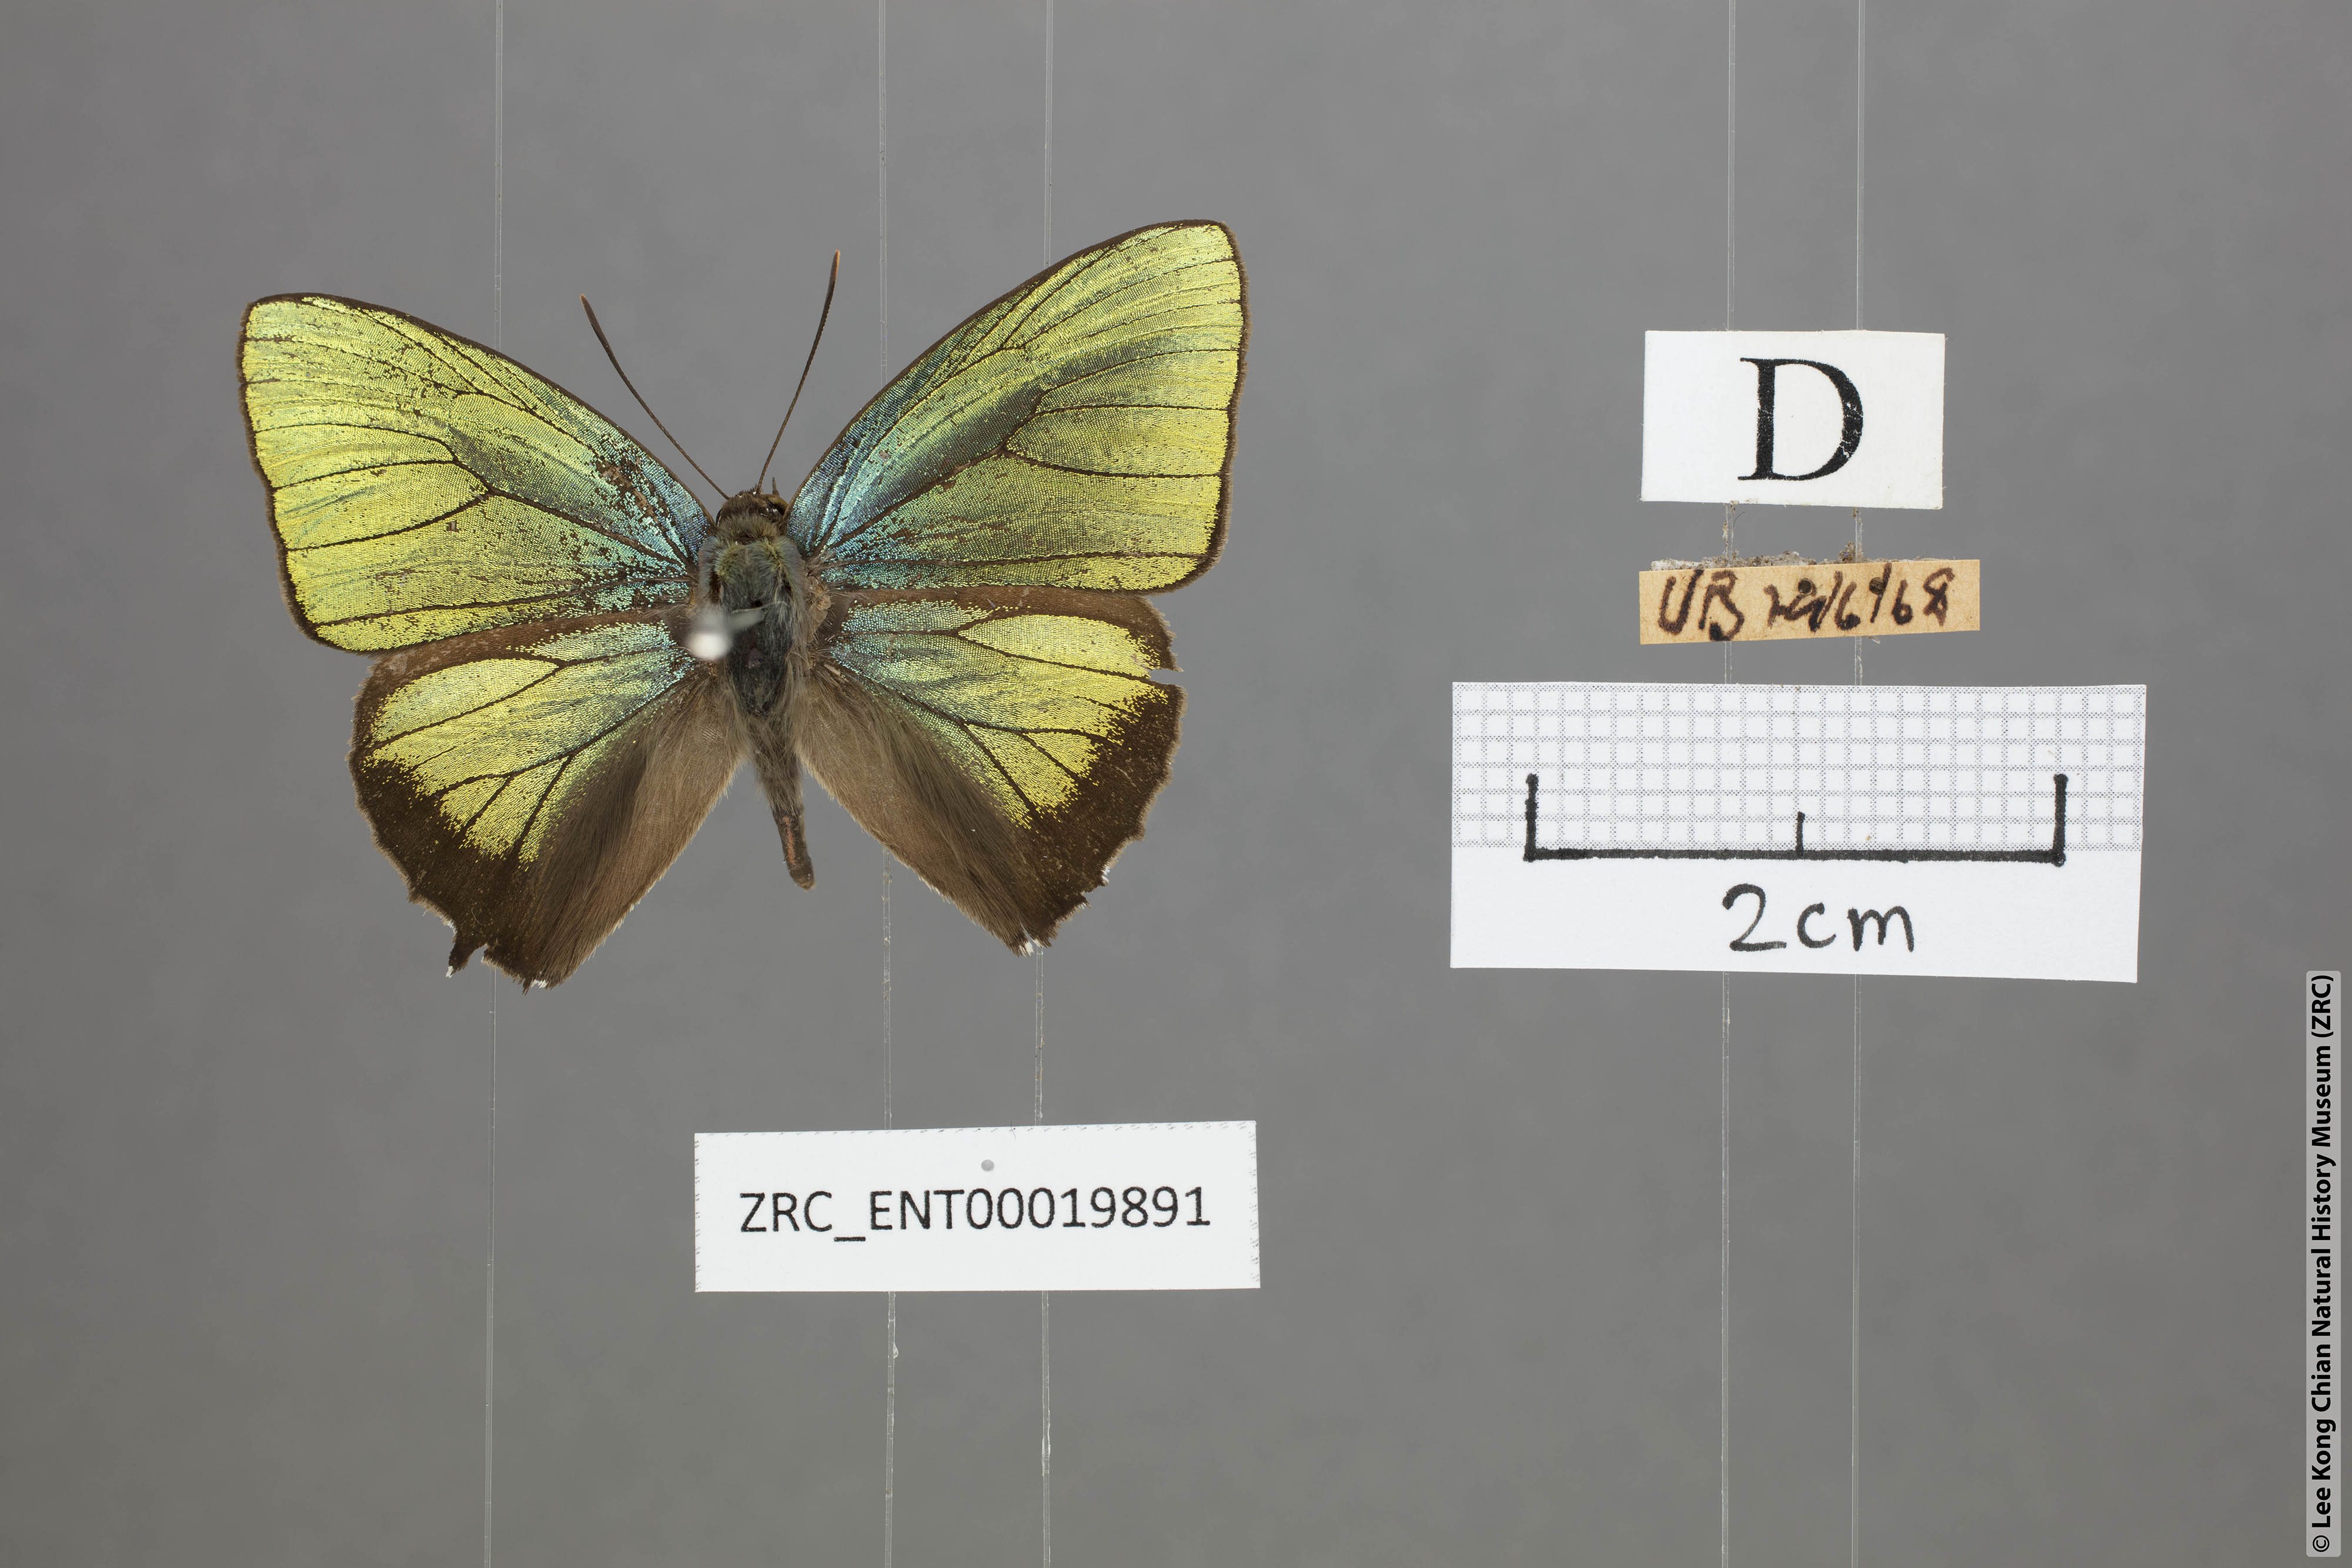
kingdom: Animalia
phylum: Arthropoda
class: Insecta
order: Lepidoptera
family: Lycaenidae
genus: Arhopala
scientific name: Arhopala trogon
